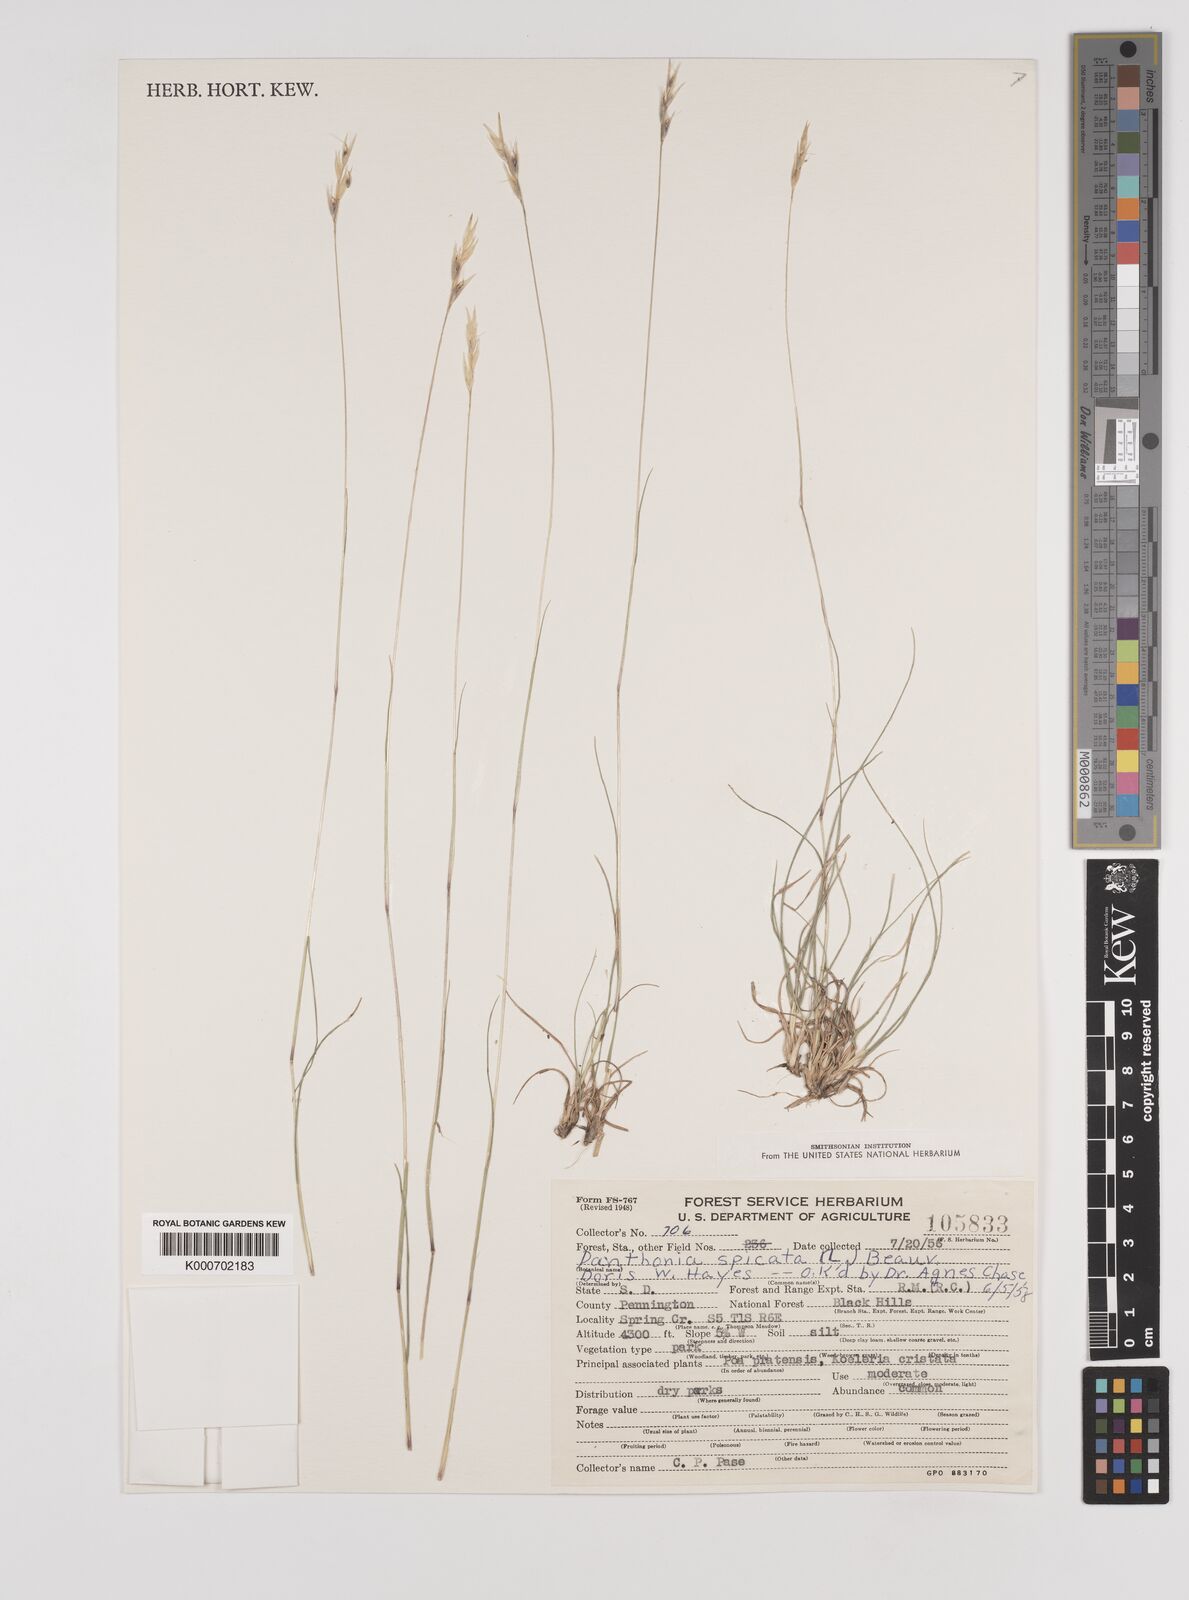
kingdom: Plantae
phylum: Tracheophyta
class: Liliopsida
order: Poales
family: Poaceae
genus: Danthonia
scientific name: Danthonia spicata
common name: Common wild oatgrass
